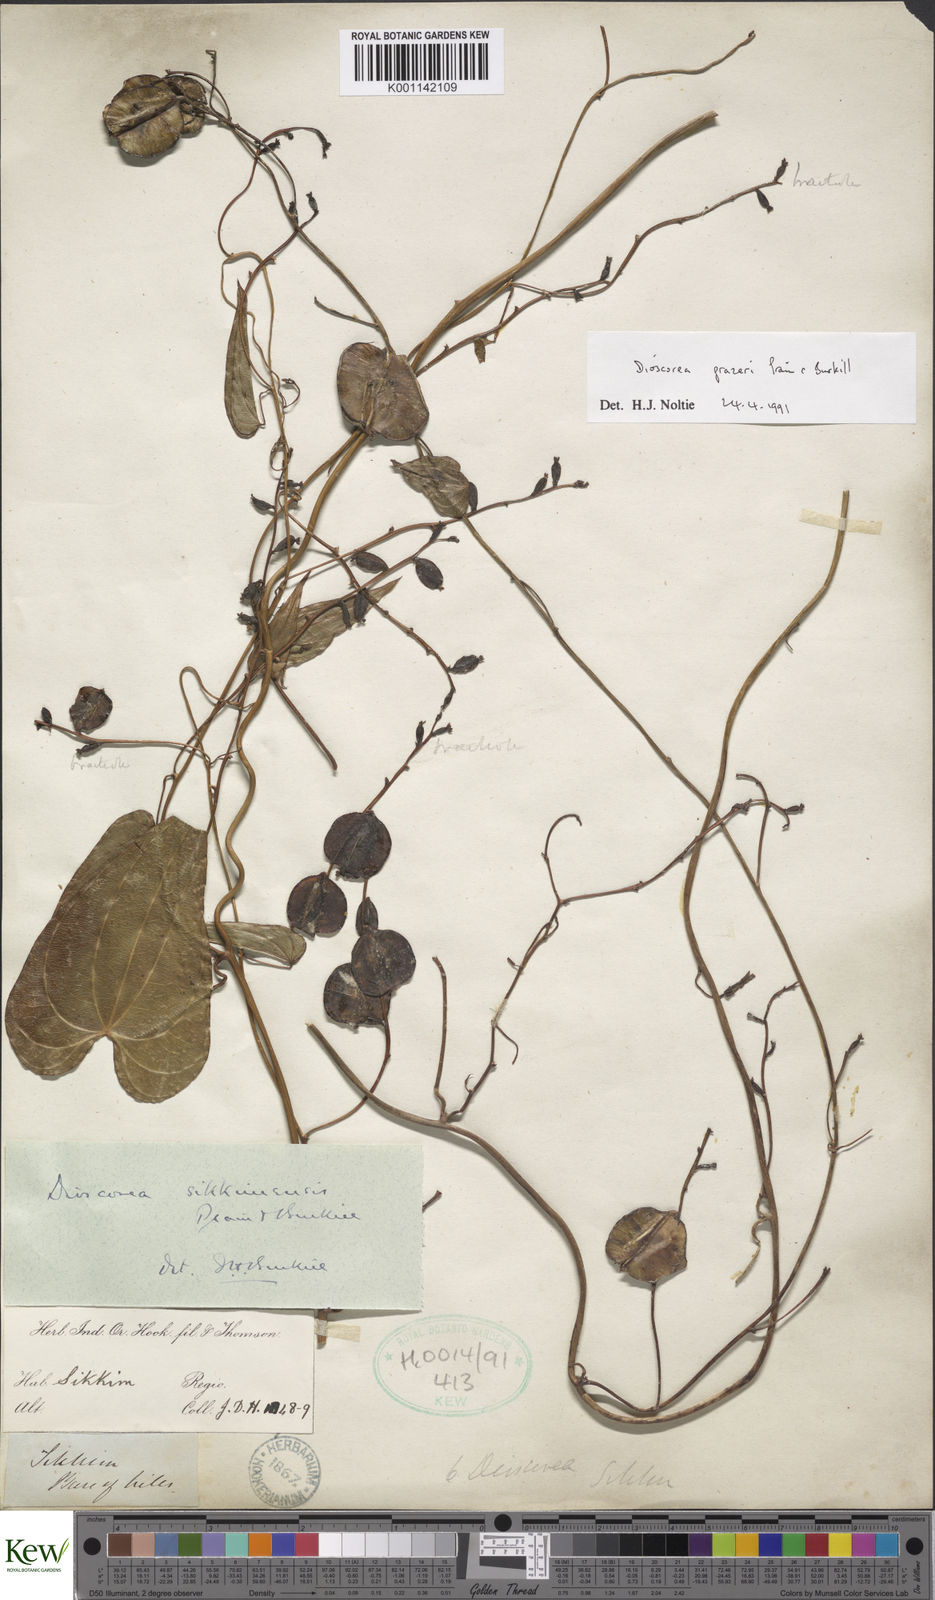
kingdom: Plantae
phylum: Tracheophyta
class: Liliopsida
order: Dioscoreales
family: Dioscoreaceae
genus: Dioscorea
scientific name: Dioscorea prazeri
